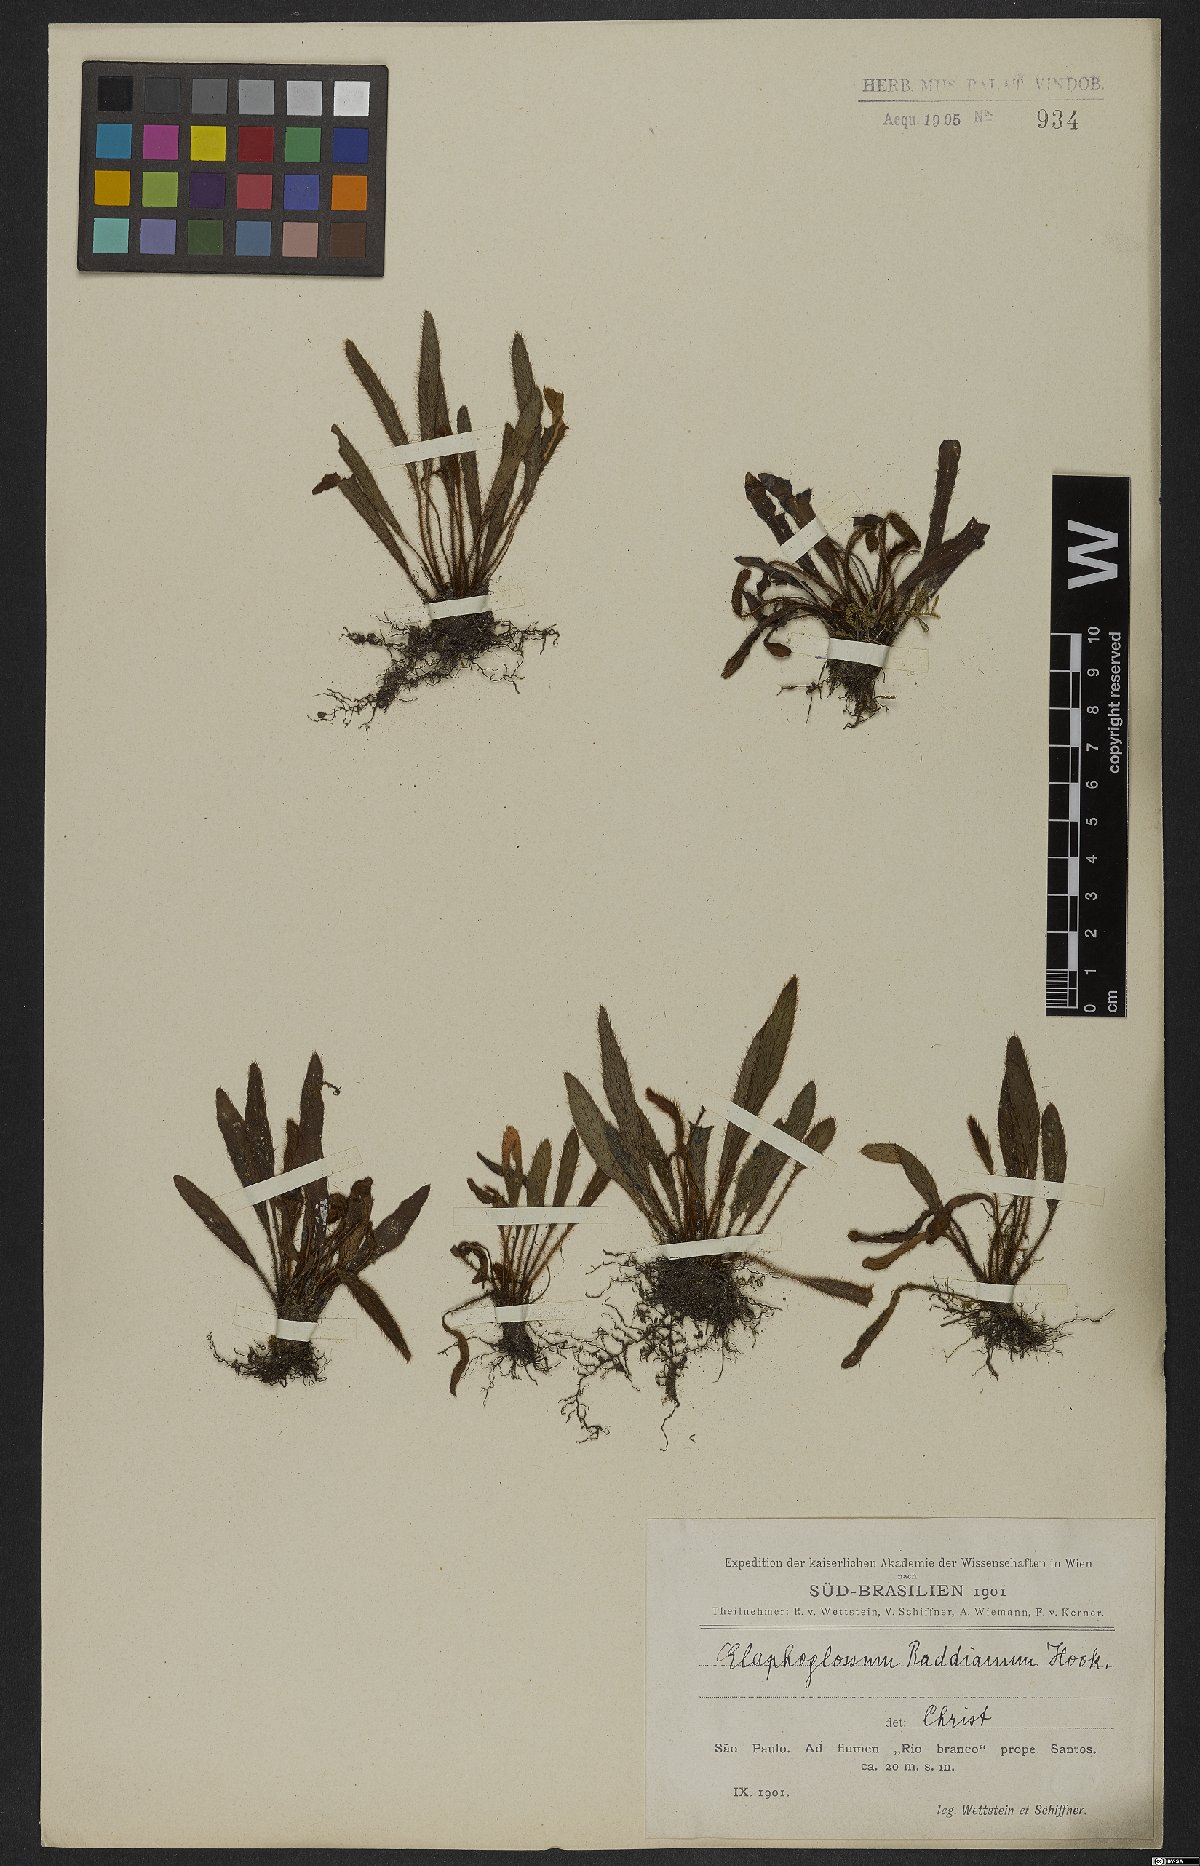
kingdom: Plantae
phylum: Tracheophyta
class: Polypodiopsida
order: Polypodiales
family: Dryopteridaceae
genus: Elaphoglossum
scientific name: Elaphoglossum spatulatum
